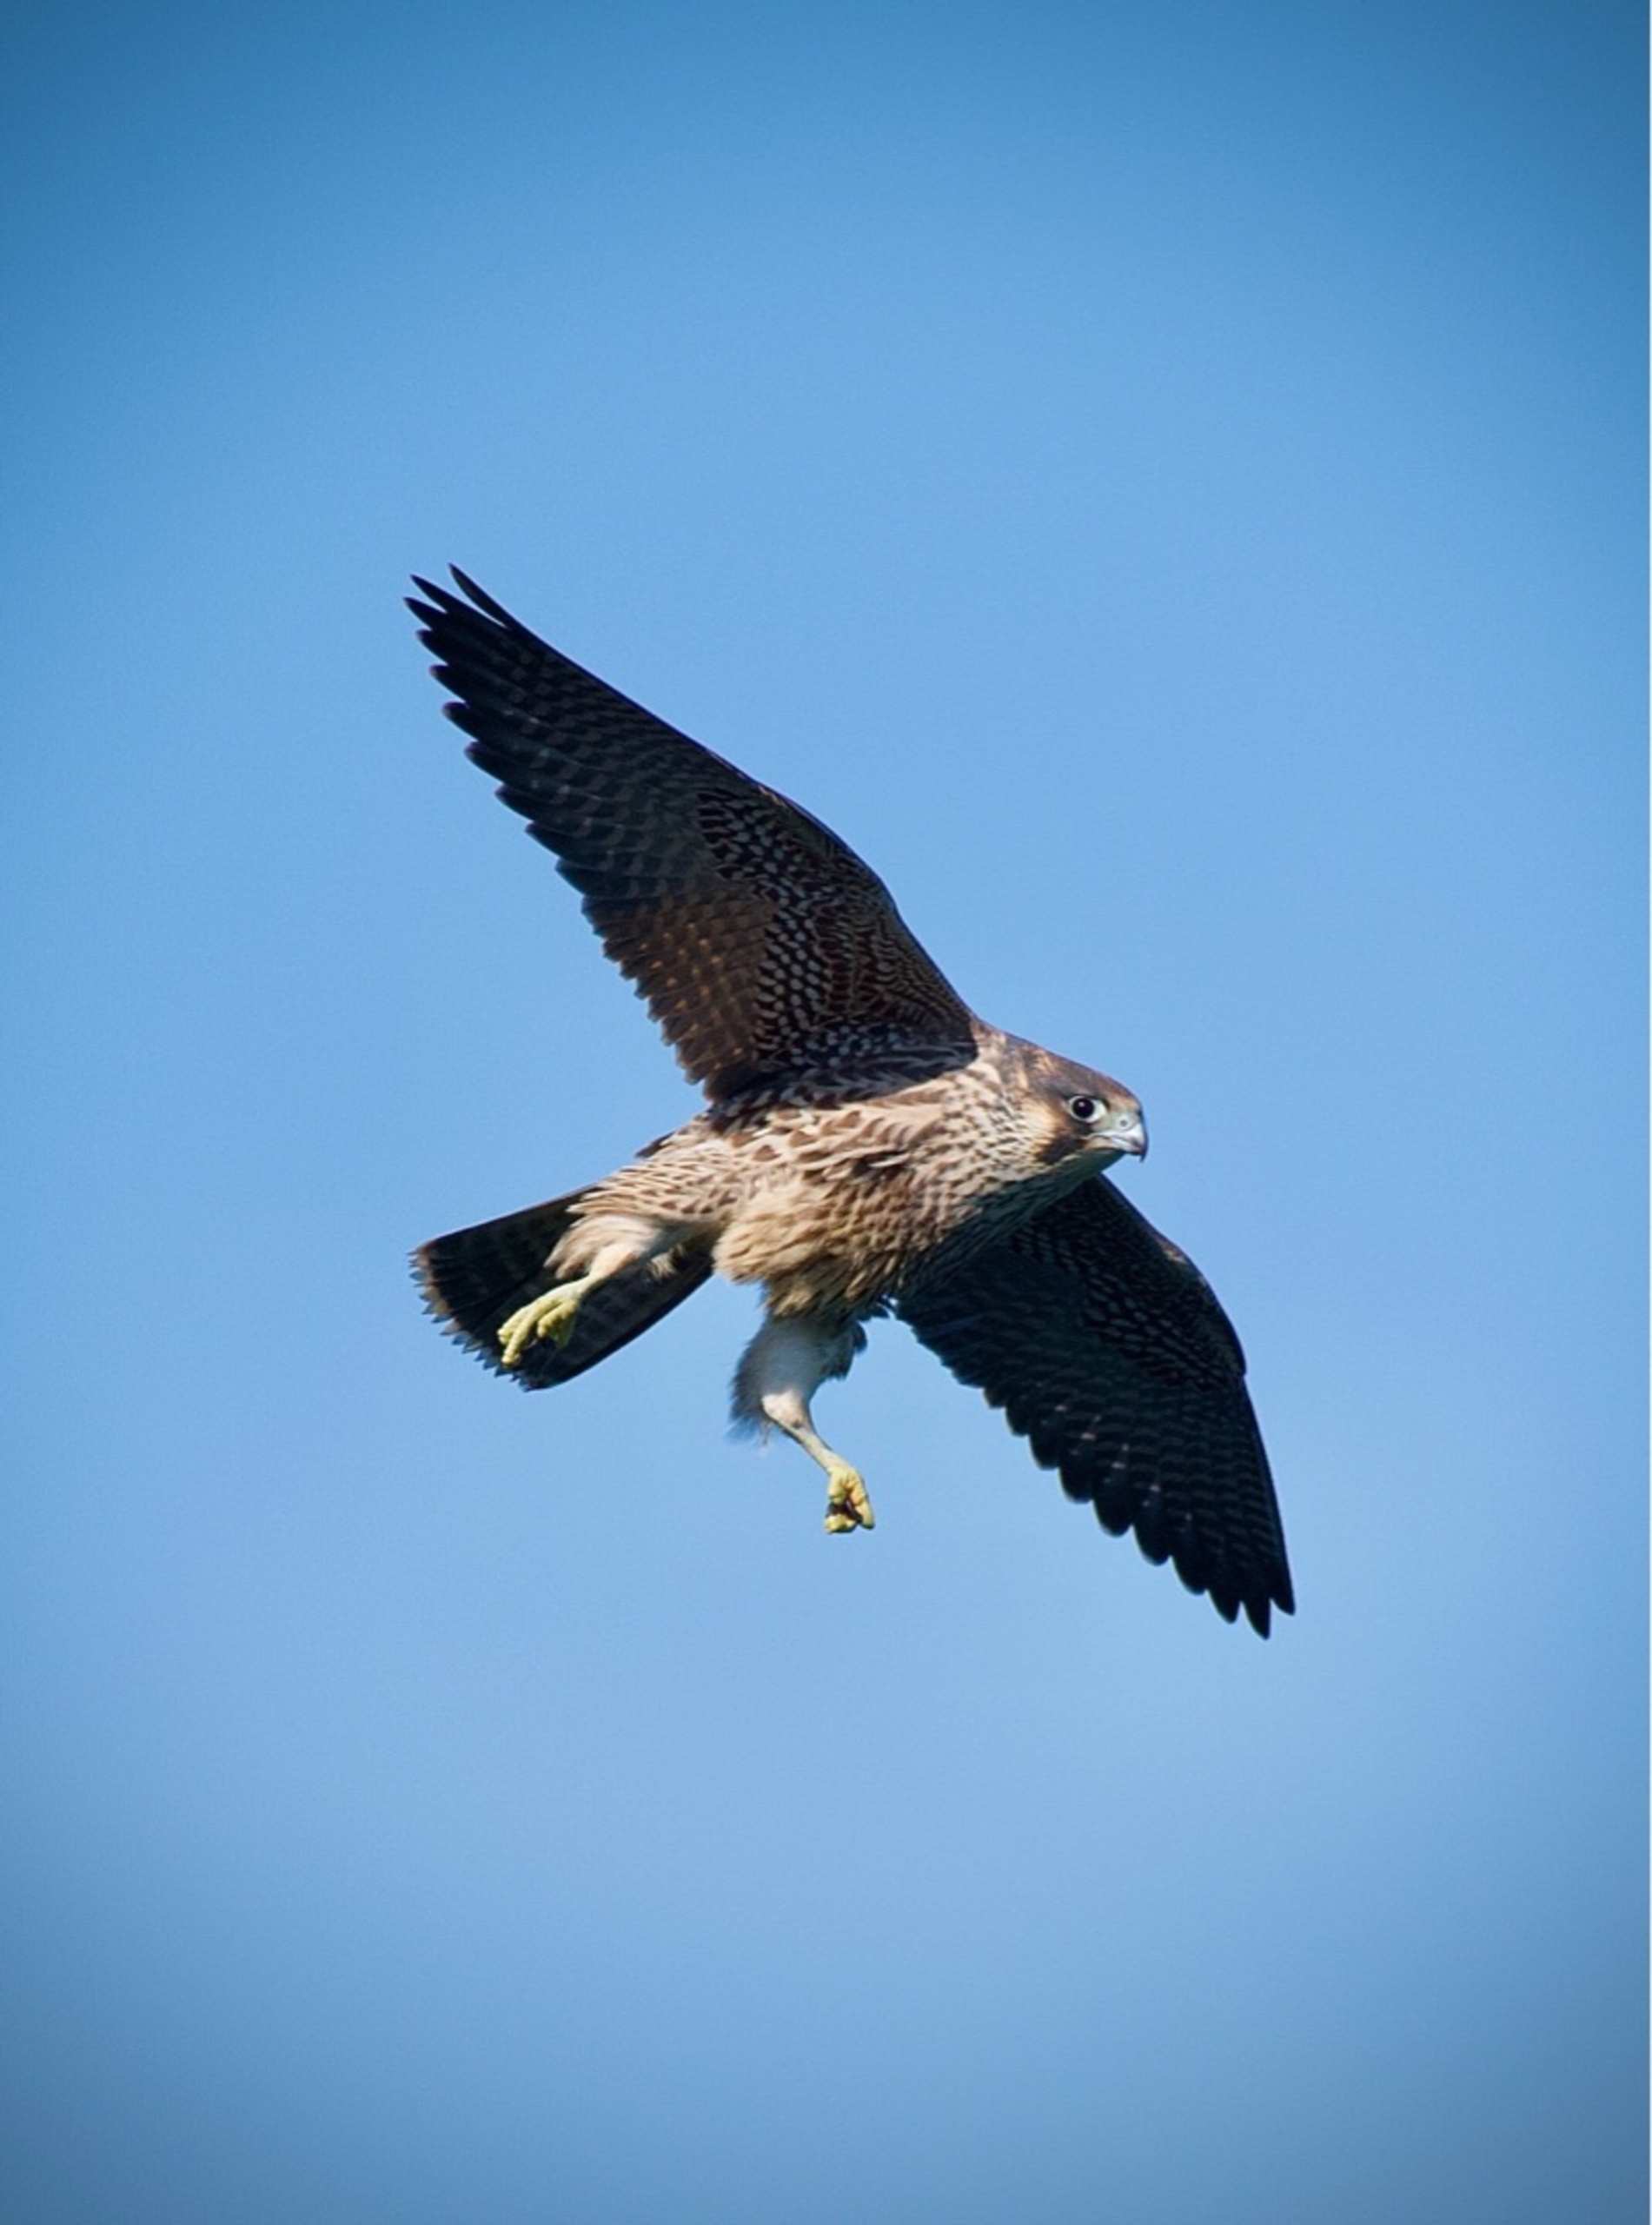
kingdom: Animalia
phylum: Chordata
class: Aves
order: Falconiformes
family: Falconidae
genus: Falco
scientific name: Falco peregrinus
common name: Vandrefalk
